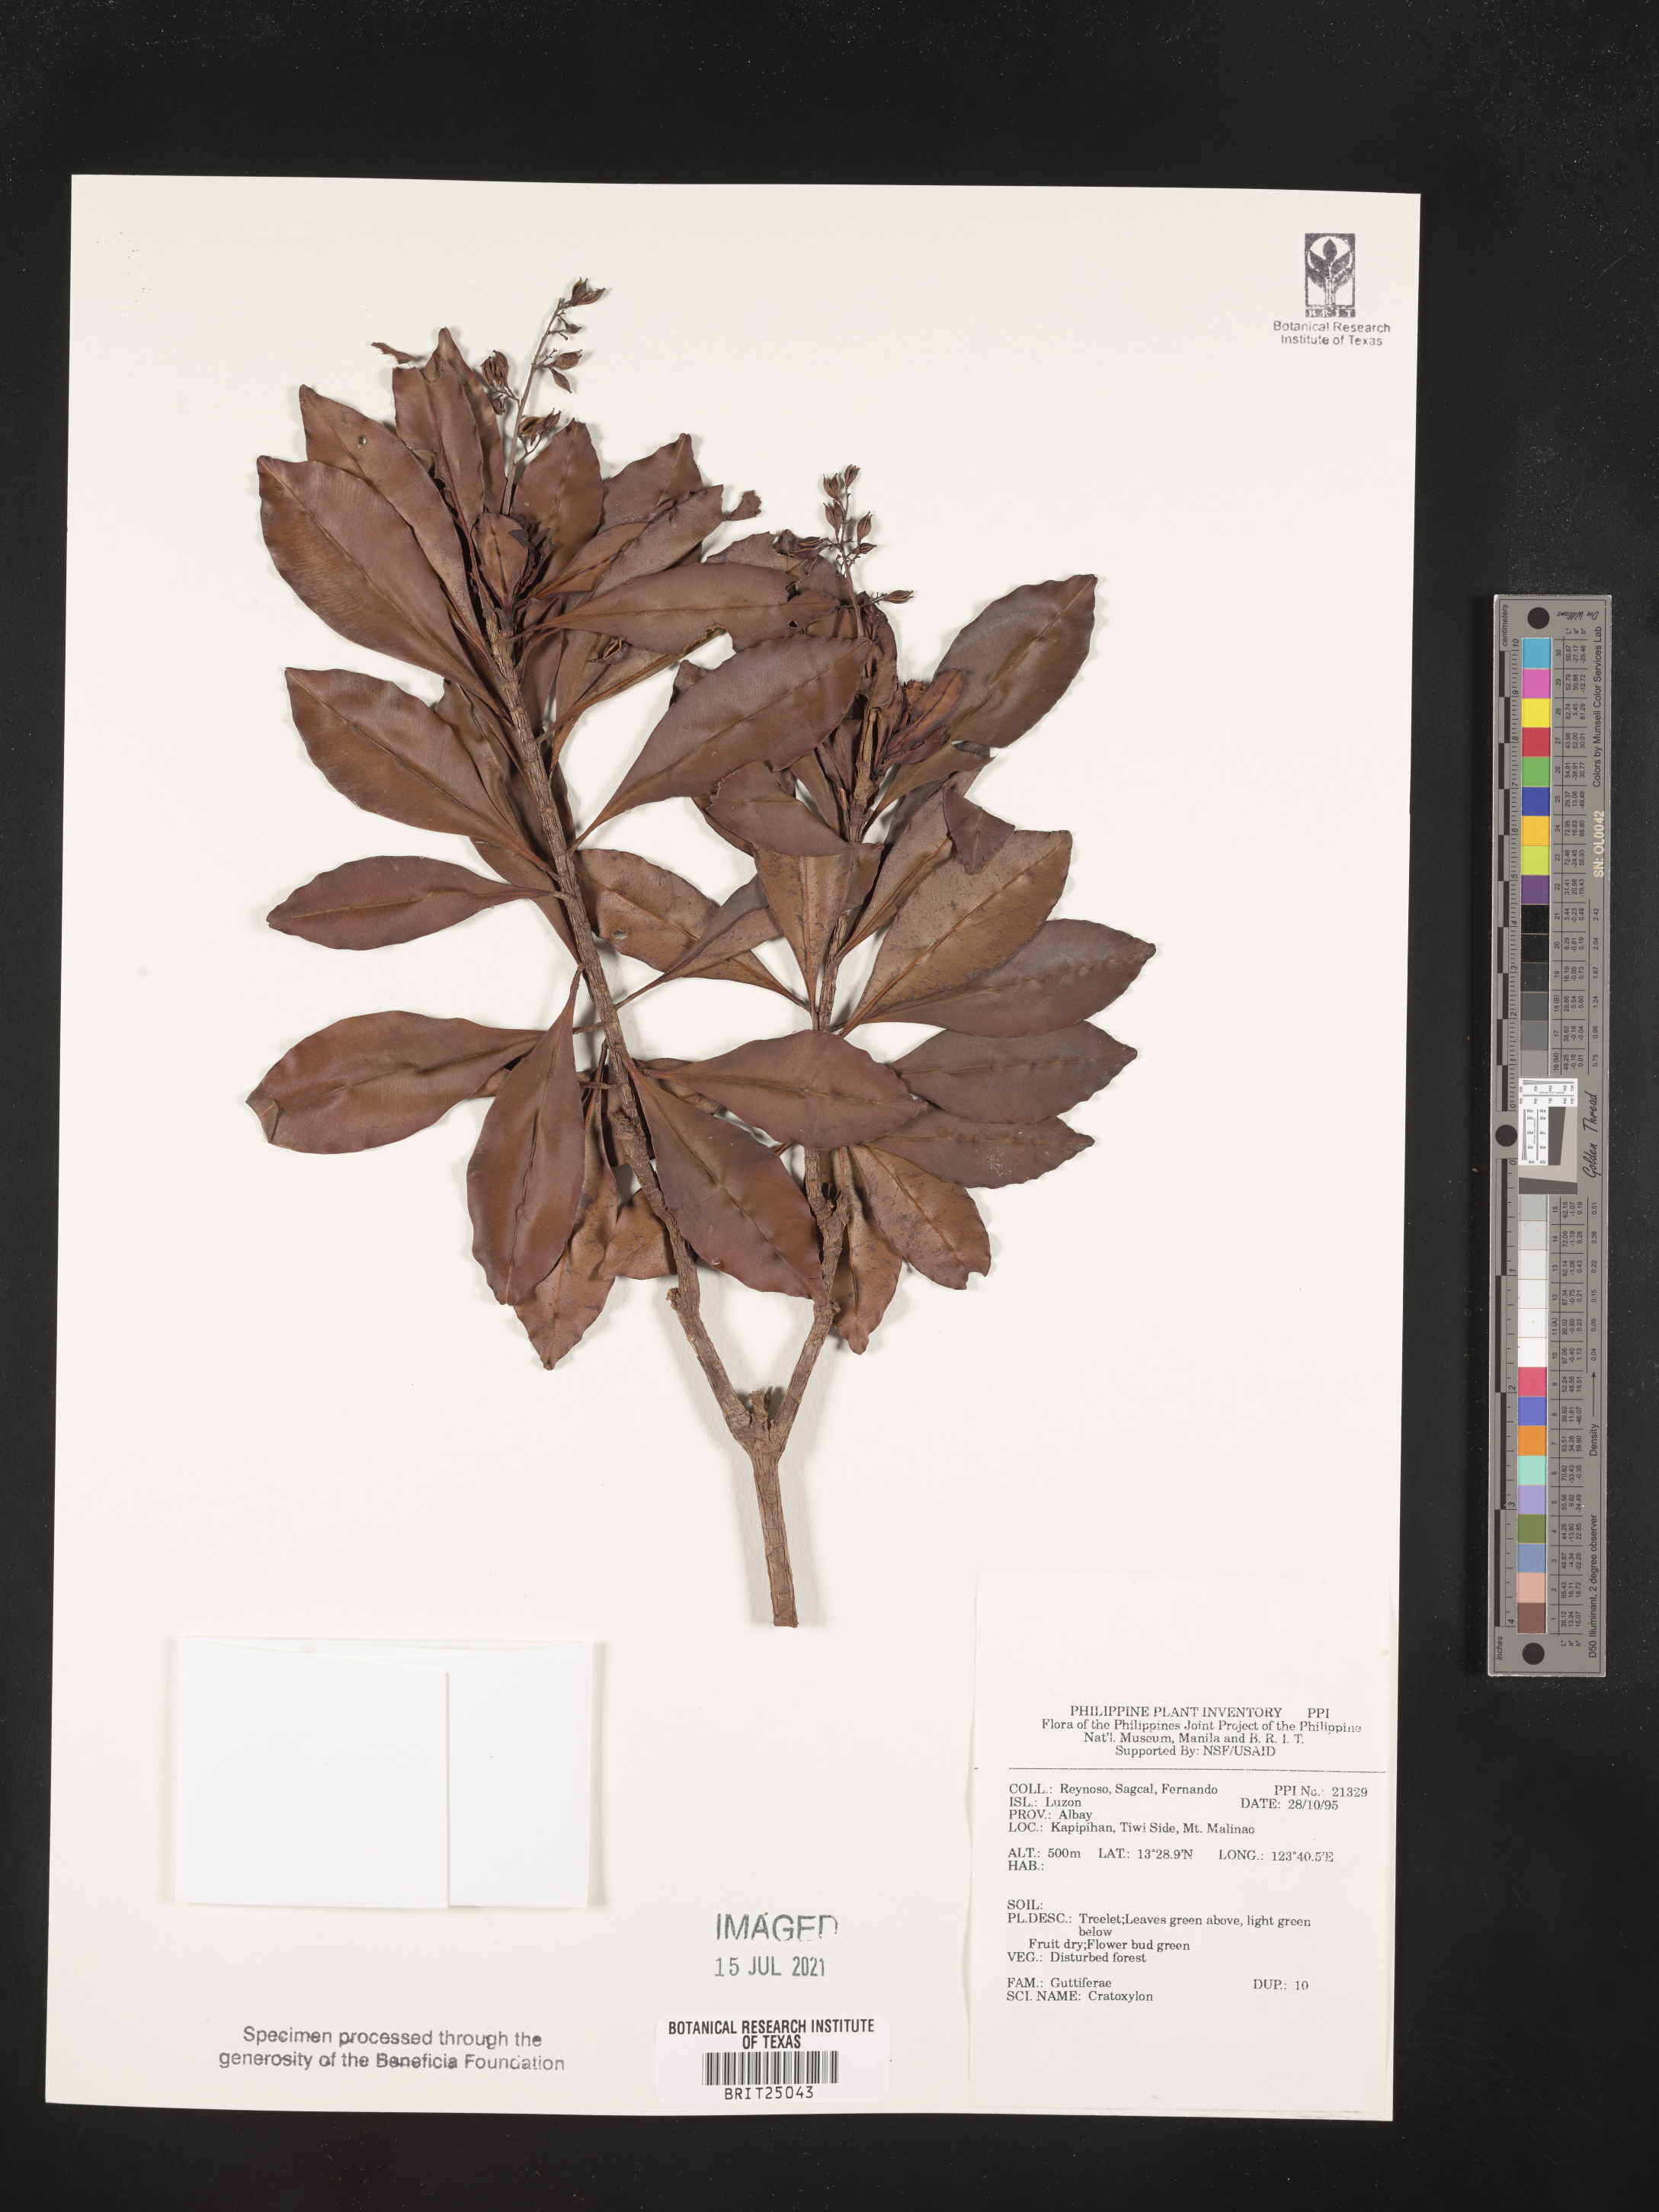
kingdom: Plantae
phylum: Tracheophyta
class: Magnoliopsida
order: Malpighiales
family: Hypericaceae
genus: Cratoxylum
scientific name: Cratoxylum
